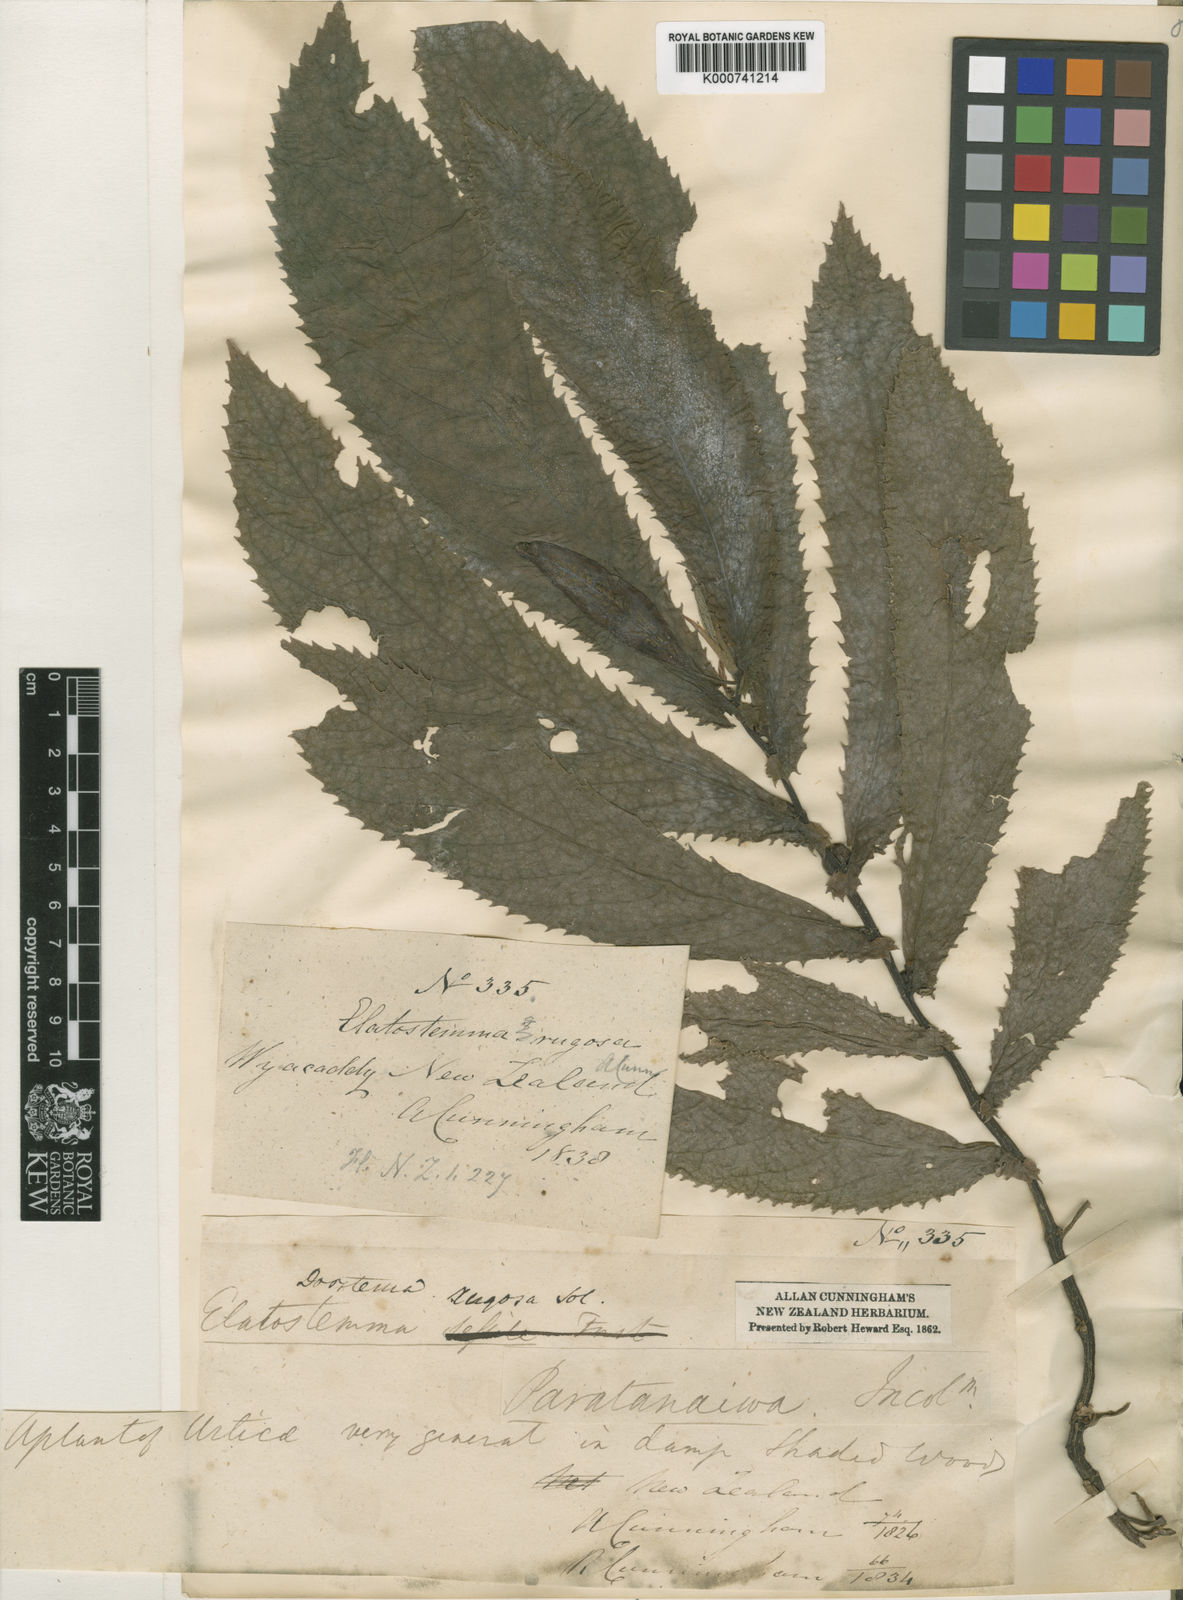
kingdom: Plantae
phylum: Tracheophyta
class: Magnoliopsida
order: Rosales
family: Urticaceae
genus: Elatostema
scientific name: Elatostema
